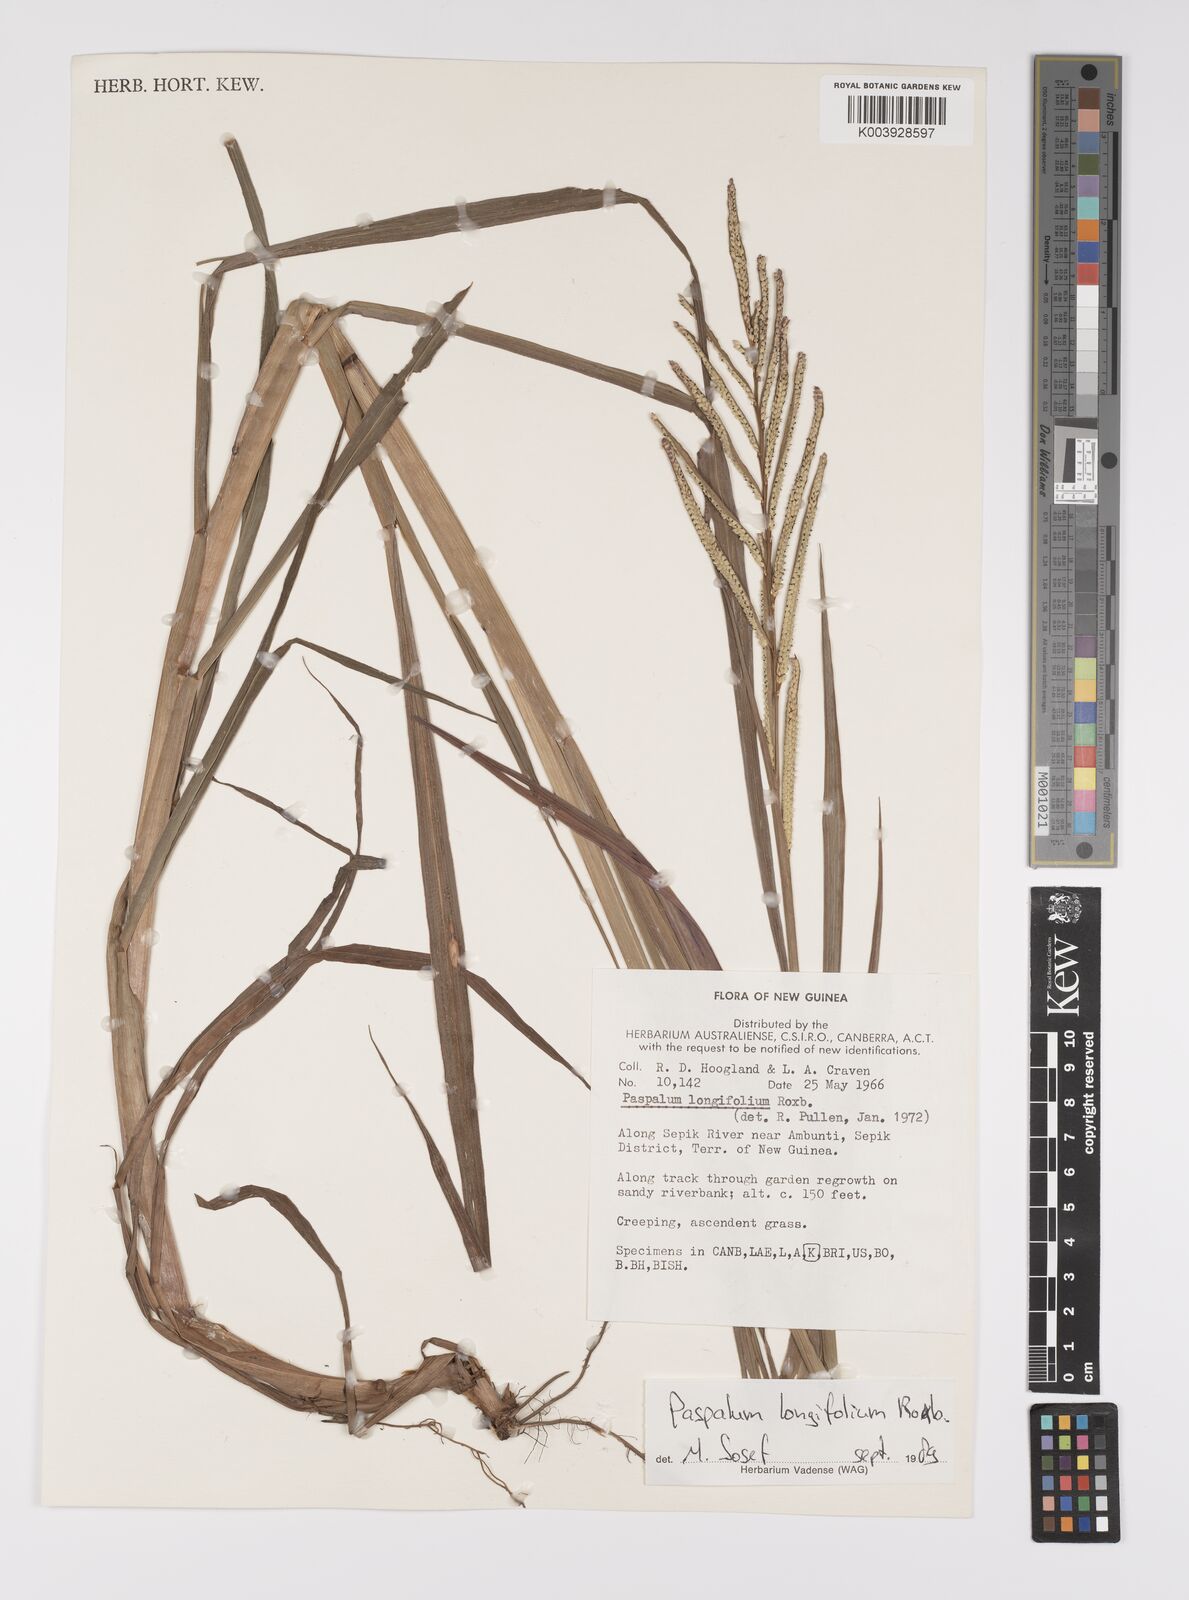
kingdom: Plantae
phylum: Tracheophyta
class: Liliopsida
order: Poales
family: Poaceae
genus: Paspalum
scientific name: Paspalum sumatrense
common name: Long-leaved paspalum
